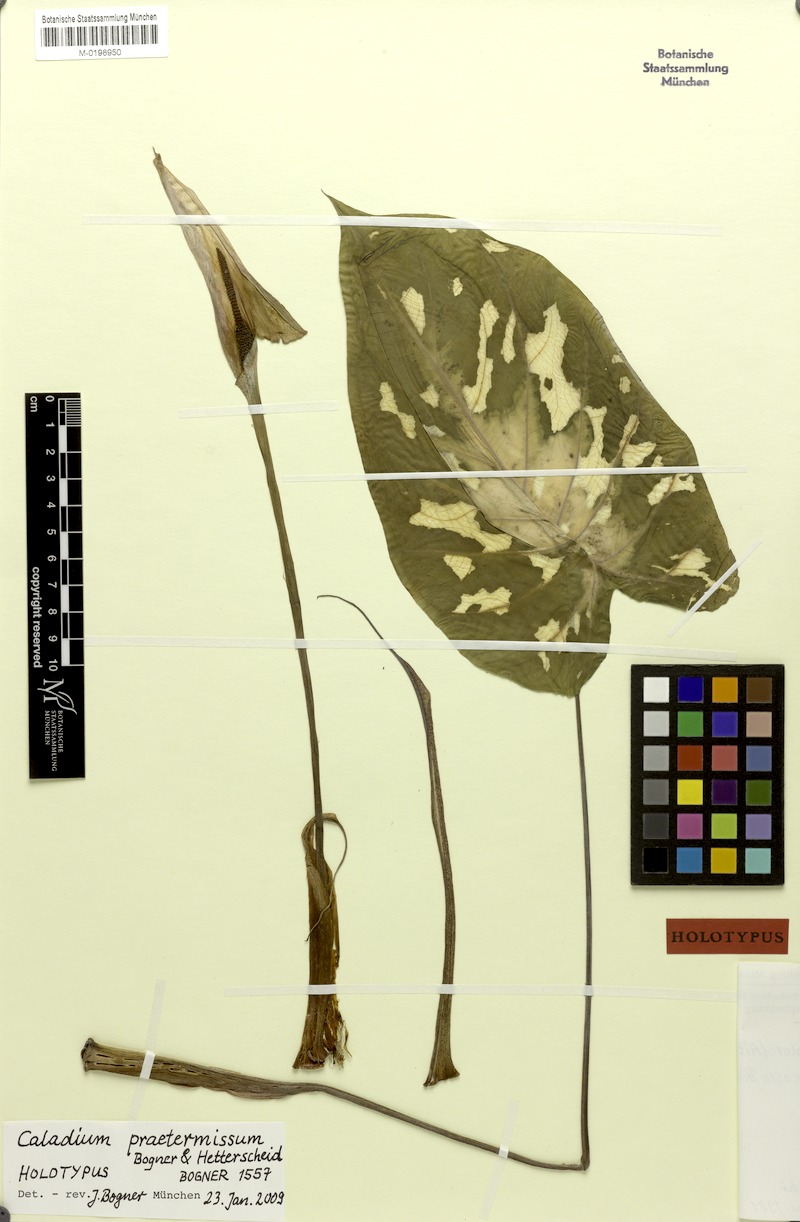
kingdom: Plantae
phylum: Tracheophyta
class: Liliopsida
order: Alismatales
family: Araceae
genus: Caladium
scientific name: Caladium praetermissum
